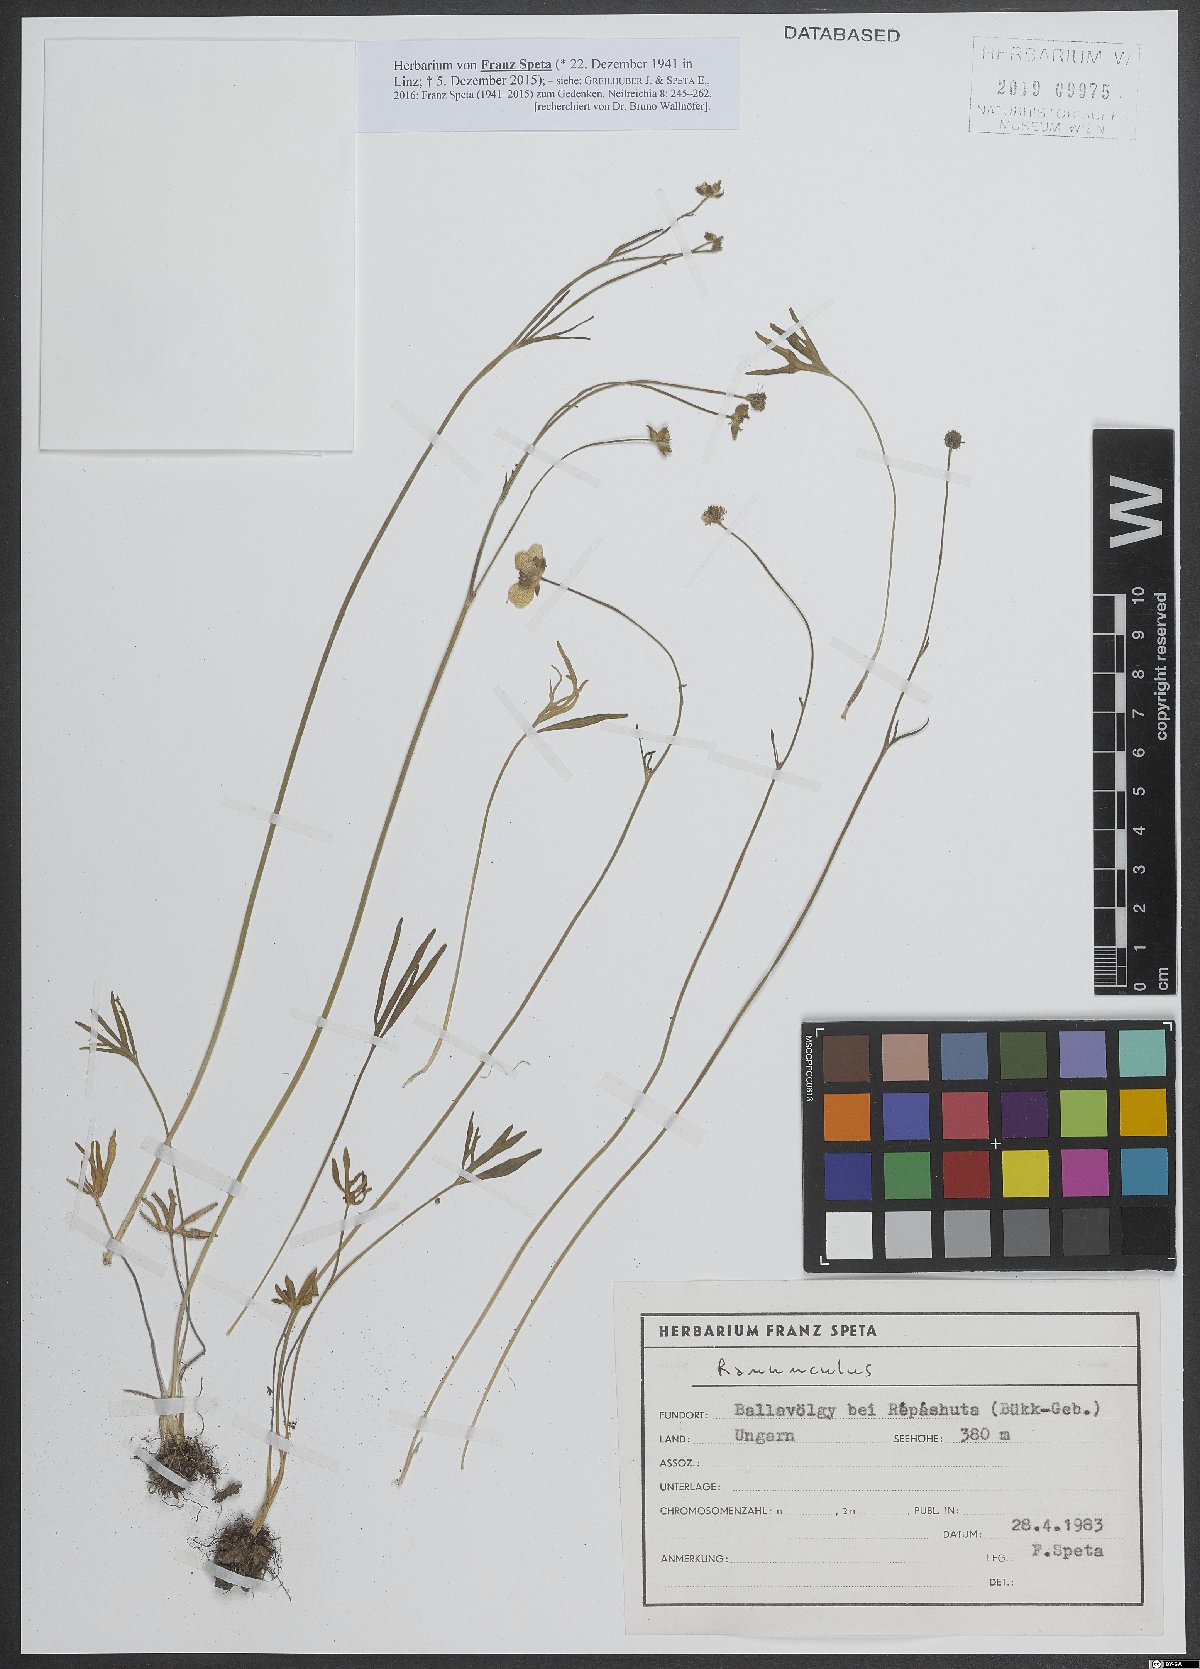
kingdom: Plantae
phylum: Tracheophyta
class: Magnoliopsida
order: Ranunculales
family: Ranunculaceae
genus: Ranunculus
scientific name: Ranunculus
